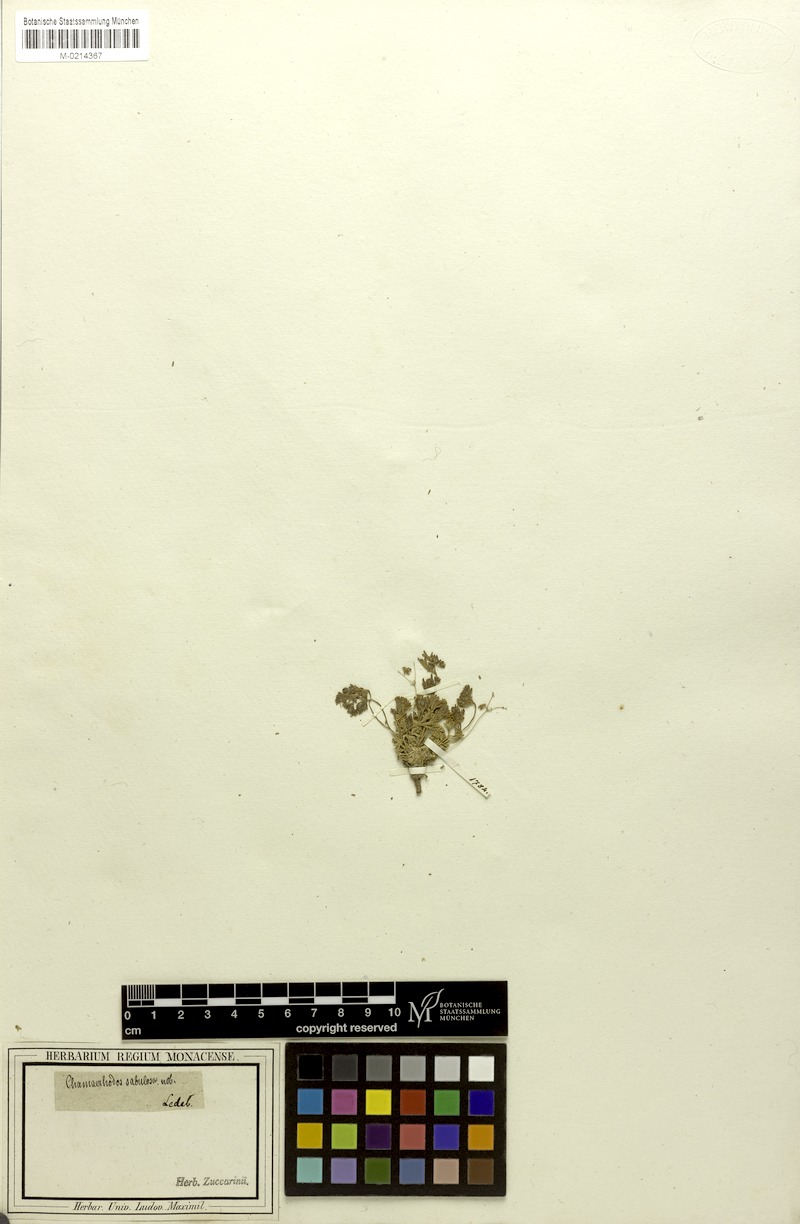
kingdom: Plantae
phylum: Tracheophyta
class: Magnoliopsida
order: Rosales
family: Rosaceae
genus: Chamaerhodos
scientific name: Chamaerhodos sabulosa
